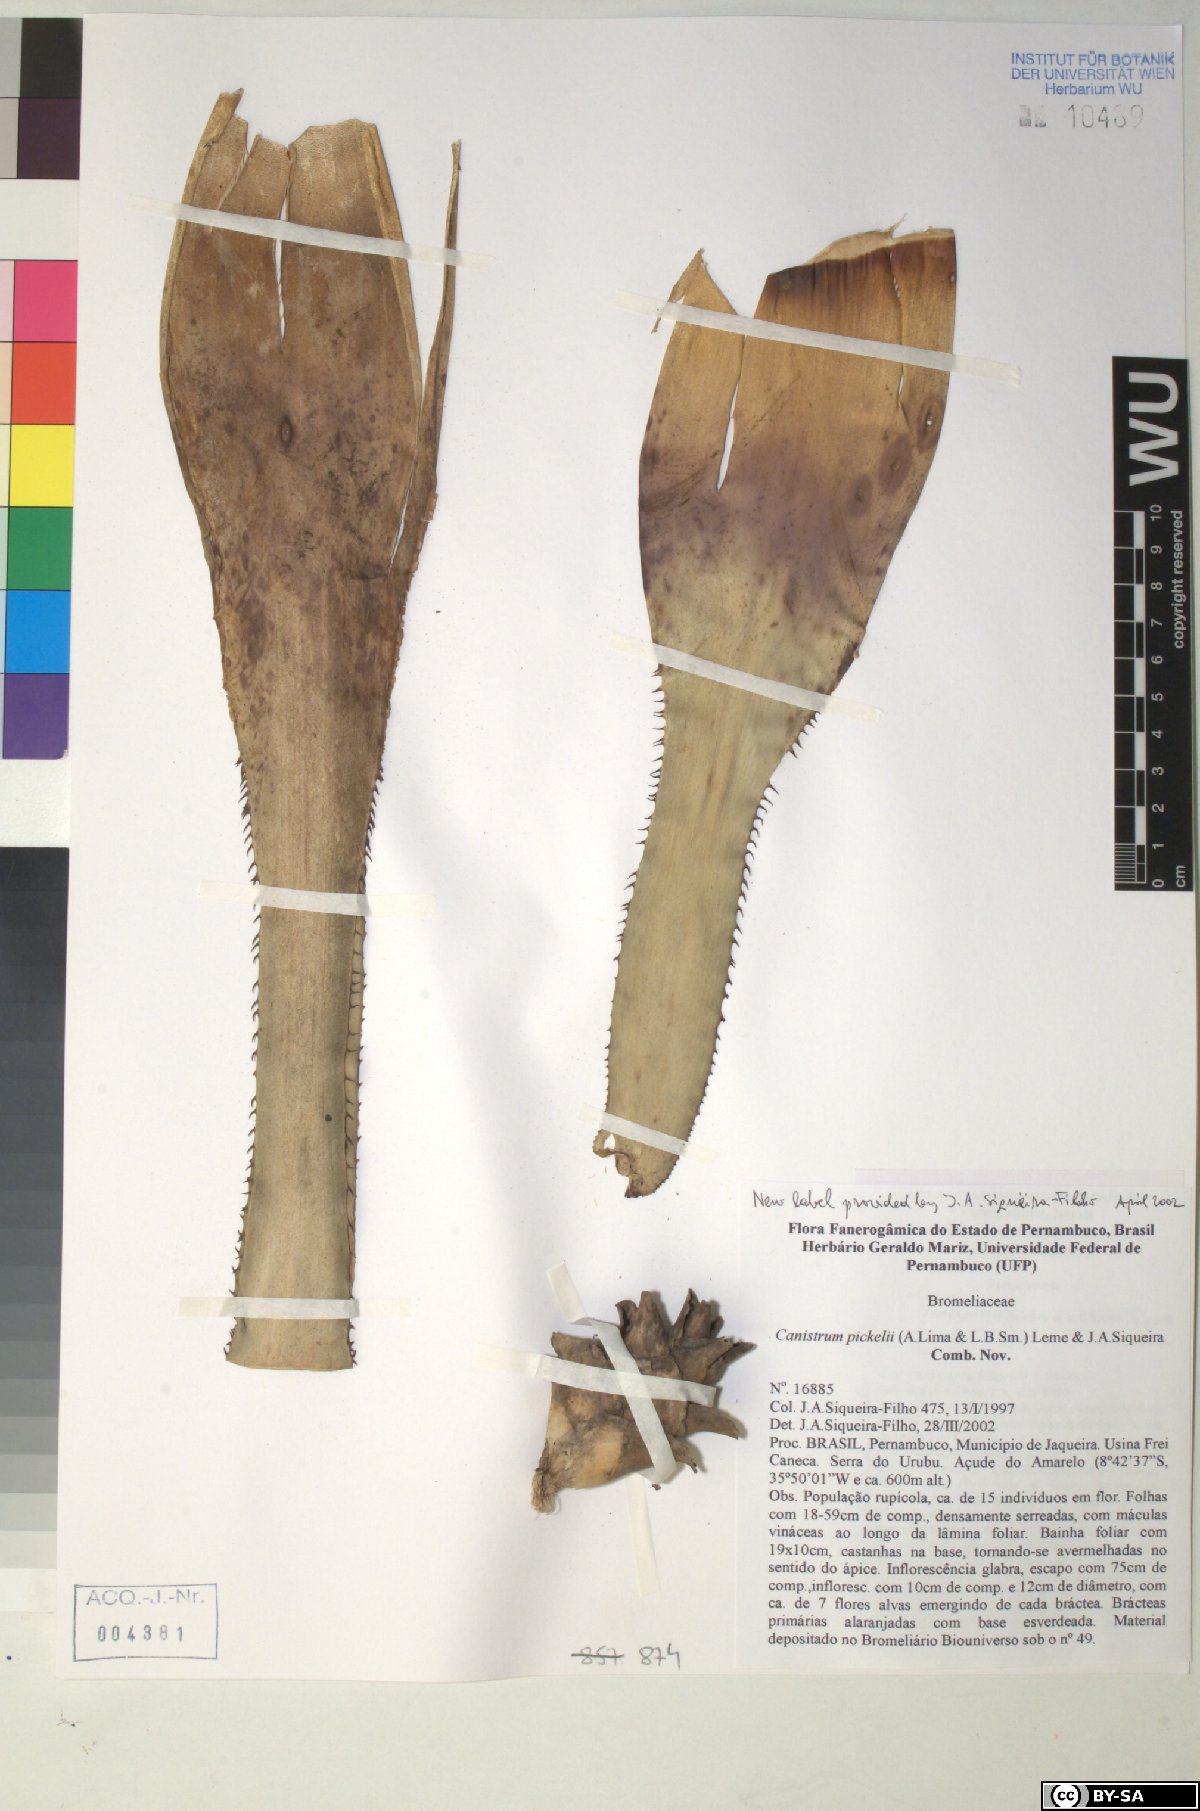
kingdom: Plantae
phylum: Tracheophyta
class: Liliopsida
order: Poales
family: Bromeliaceae
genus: Canistrum
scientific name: Canistrum pickelii
